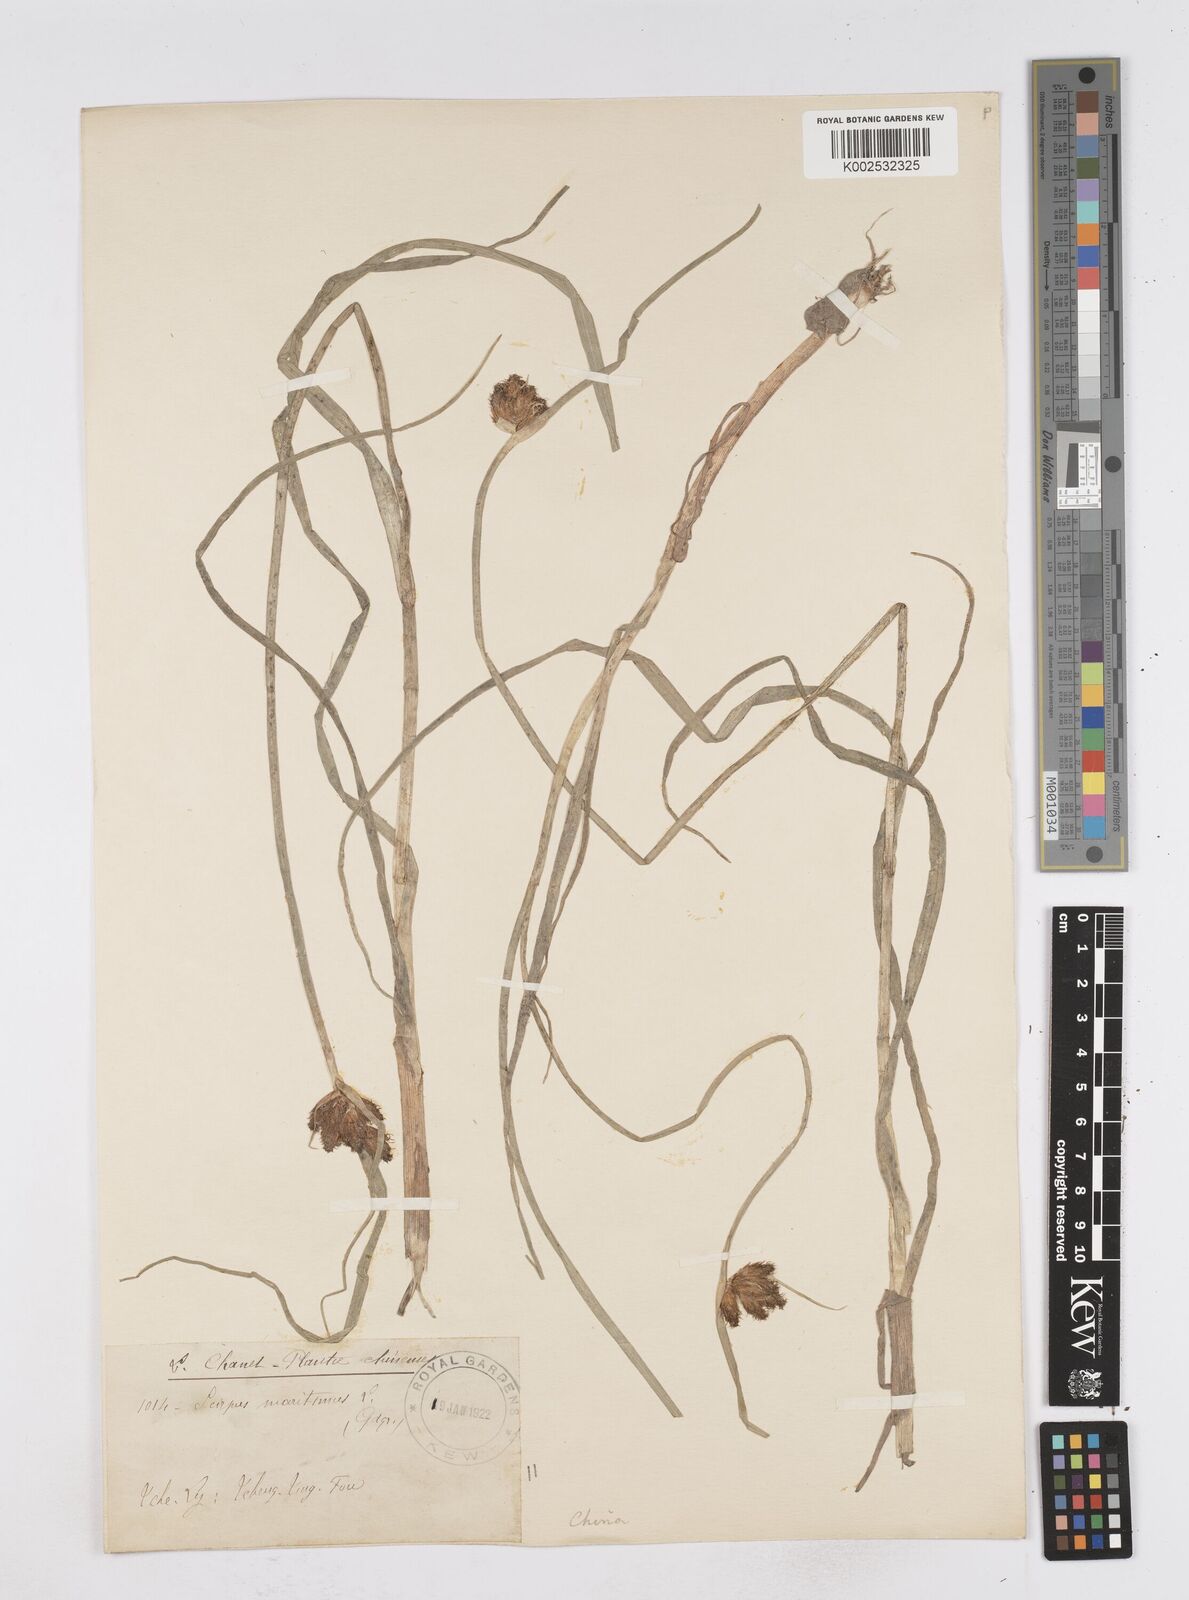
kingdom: Plantae
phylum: Tracheophyta
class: Liliopsida
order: Poales
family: Cyperaceae
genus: Bolboschoenus
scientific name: Bolboschoenus maritimus
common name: Sea club-rush
